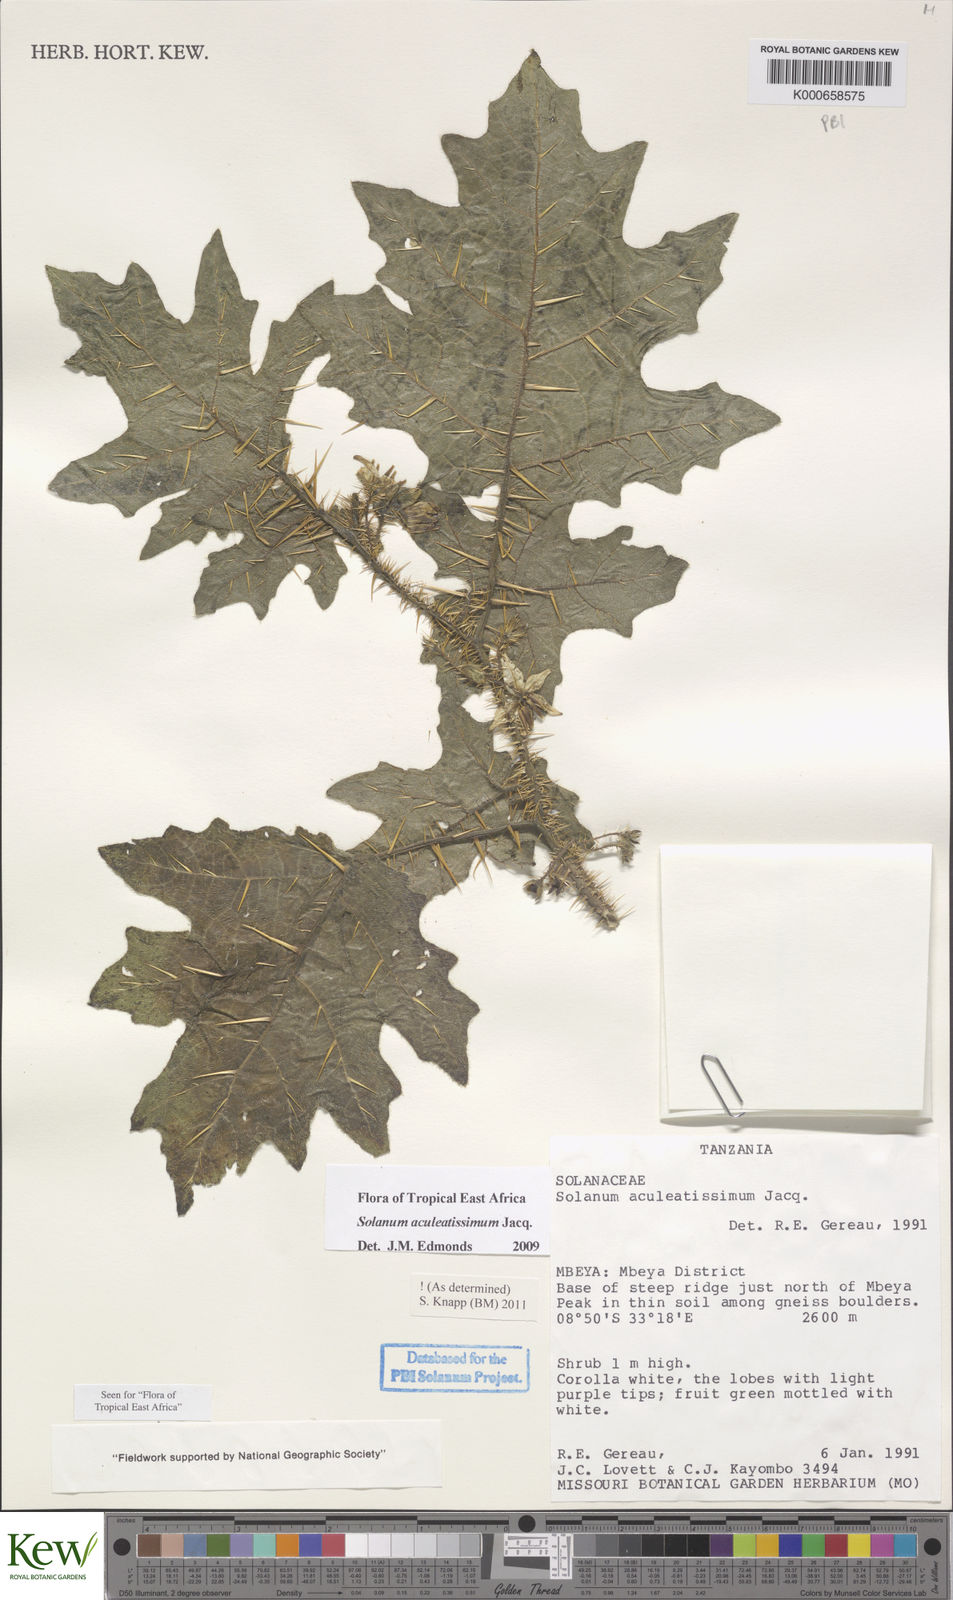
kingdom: Plantae
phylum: Tracheophyta
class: Magnoliopsida
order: Solanales
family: Solanaceae
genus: Solanum
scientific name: Solanum aculeatissimum
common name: Dutch eggplant
